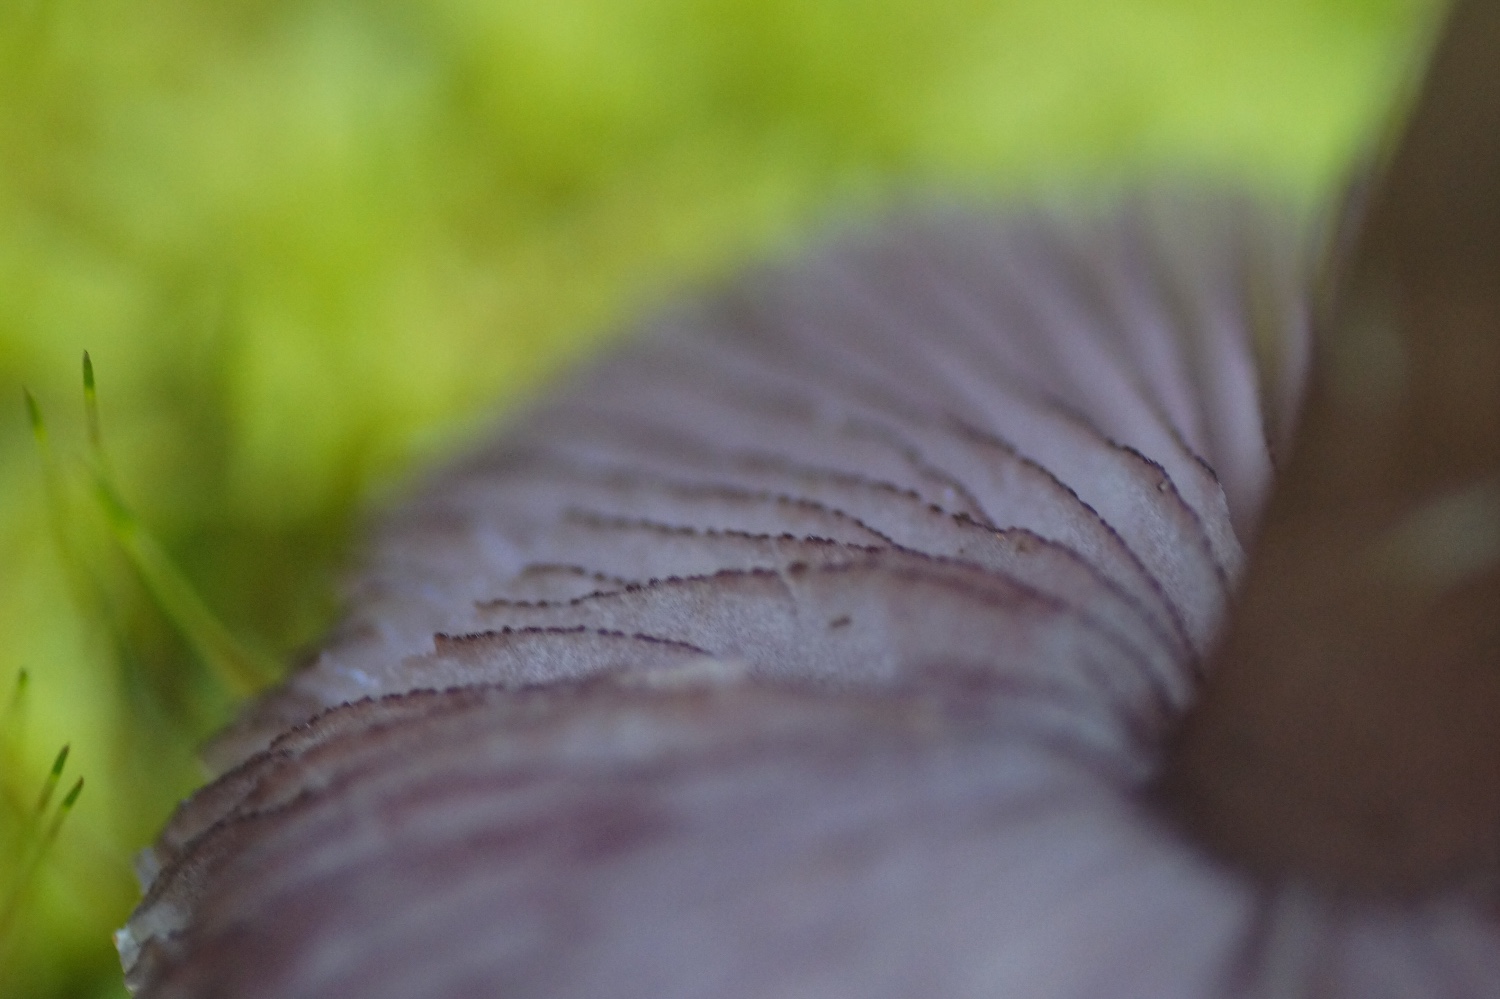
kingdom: Fungi
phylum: Basidiomycota
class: Agaricomycetes
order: Agaricales
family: Mycenaceae
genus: Mycena
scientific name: Mycena pelianthina
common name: mørkbladet huesvamp
